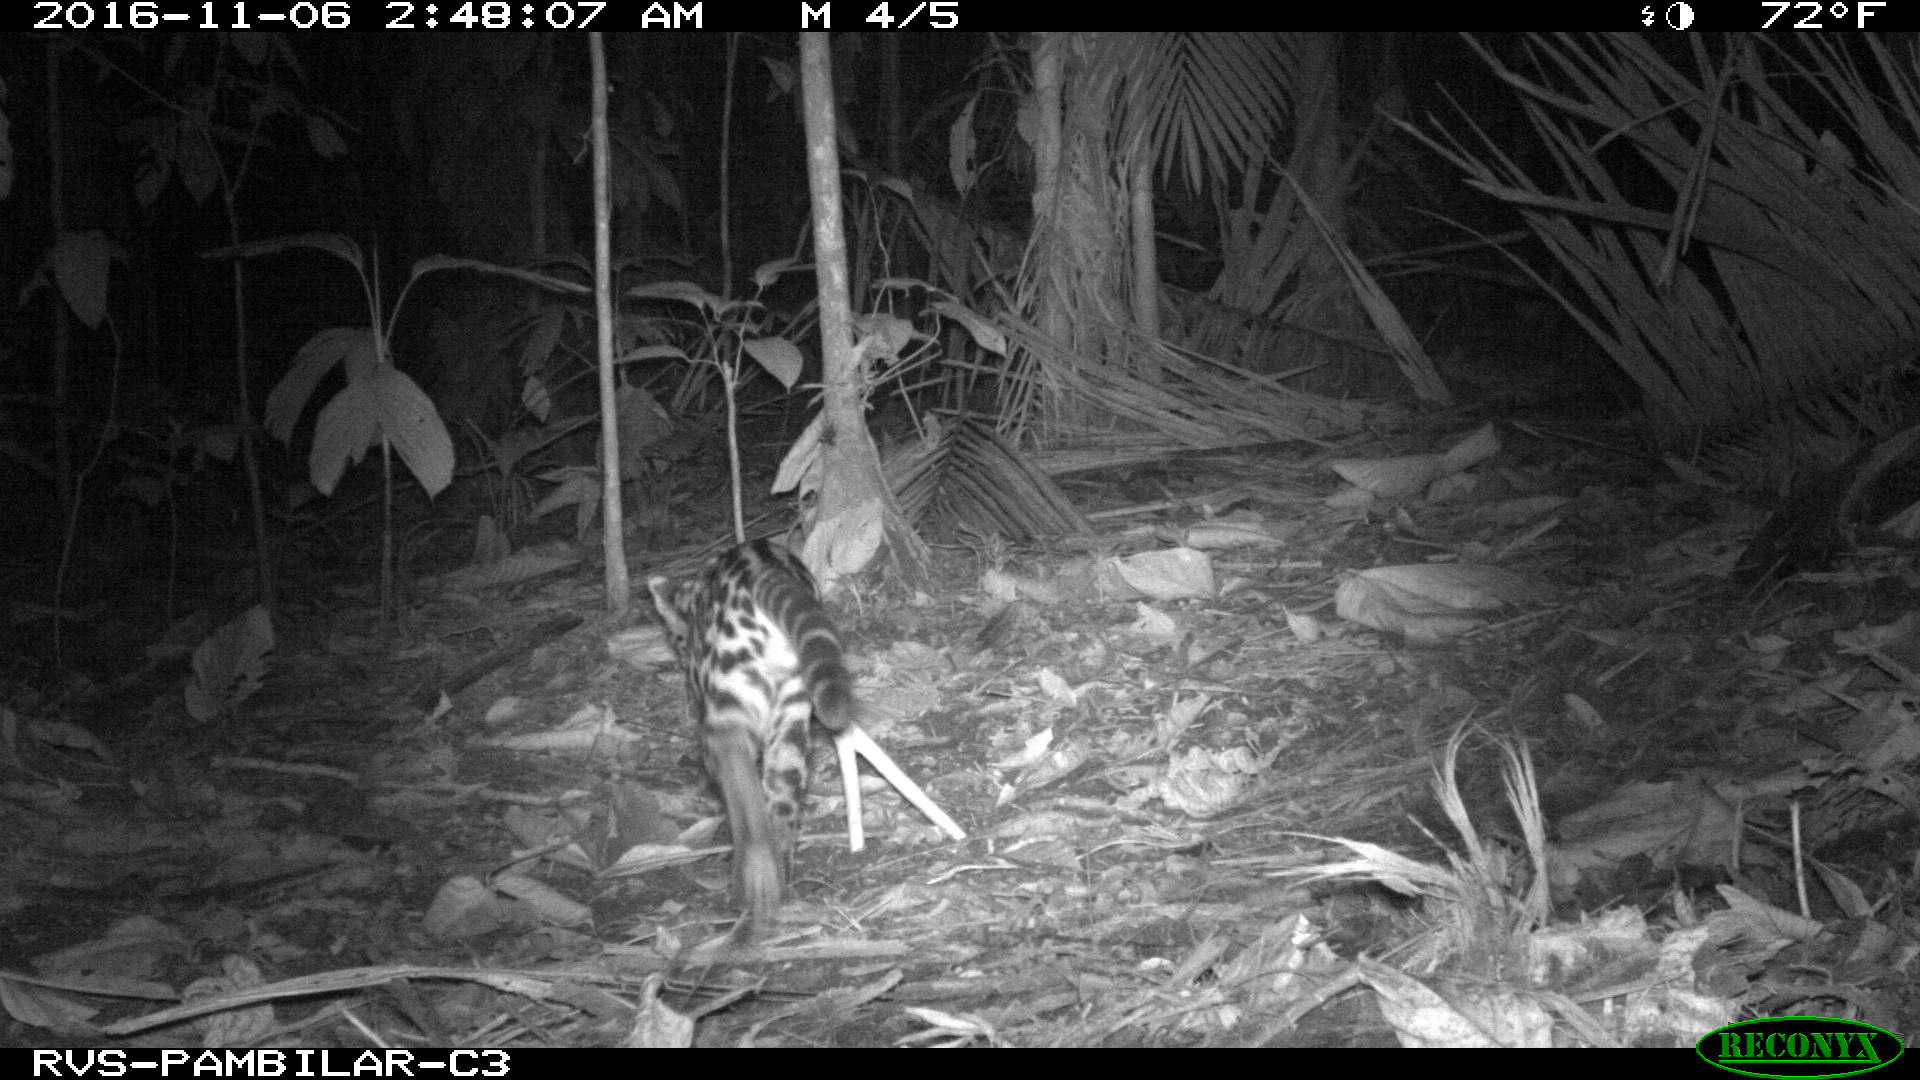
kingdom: Animalia
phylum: Chordata
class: Mammalia
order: Carnivora
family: Felidae
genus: Leopardus
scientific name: Leopardus pardalis
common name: Ocelot
